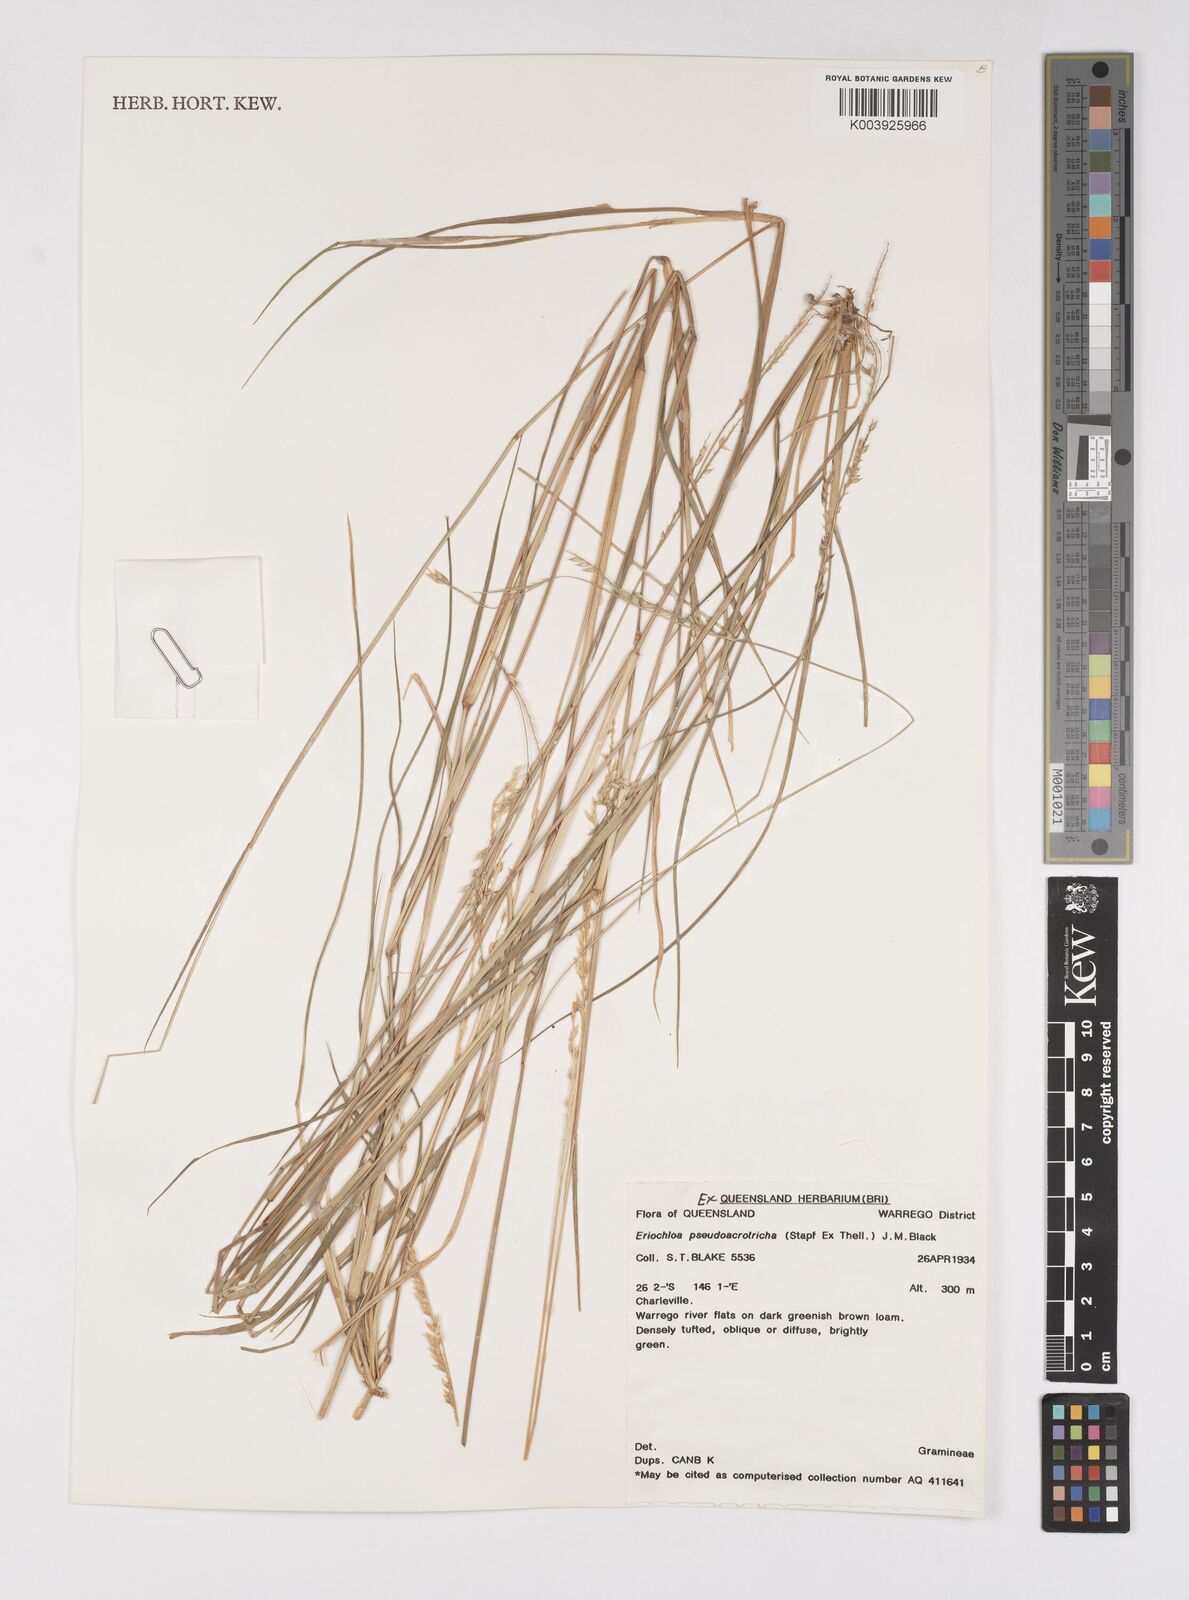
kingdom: Plantae
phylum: Tracheophyta
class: Liliopsida
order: Poales
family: Poaceae
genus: Eriochloa
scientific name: Eriochloa pseudoacrotricha
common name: Perennial cup-grass
